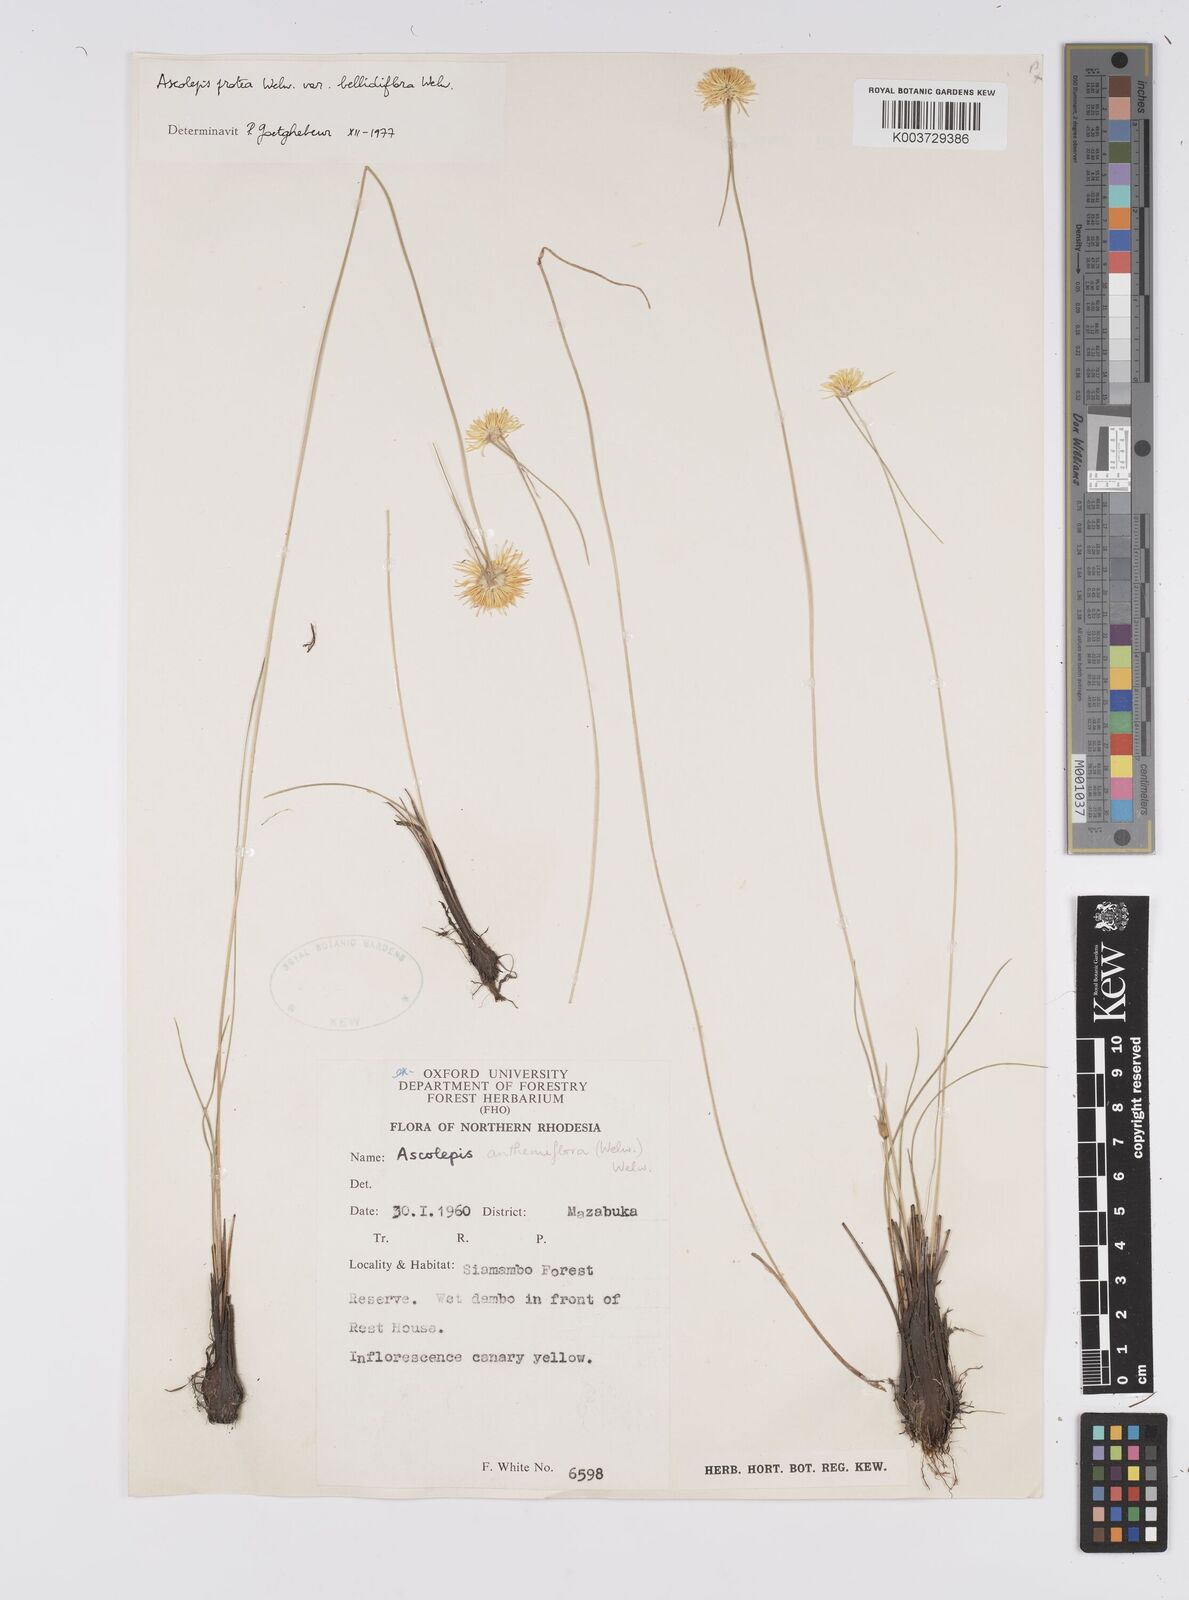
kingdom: Plantae
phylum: Tracheophyta
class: Liliopsida
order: Poales
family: Cyperaceae
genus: Cyperus
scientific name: Cyperus proteus
